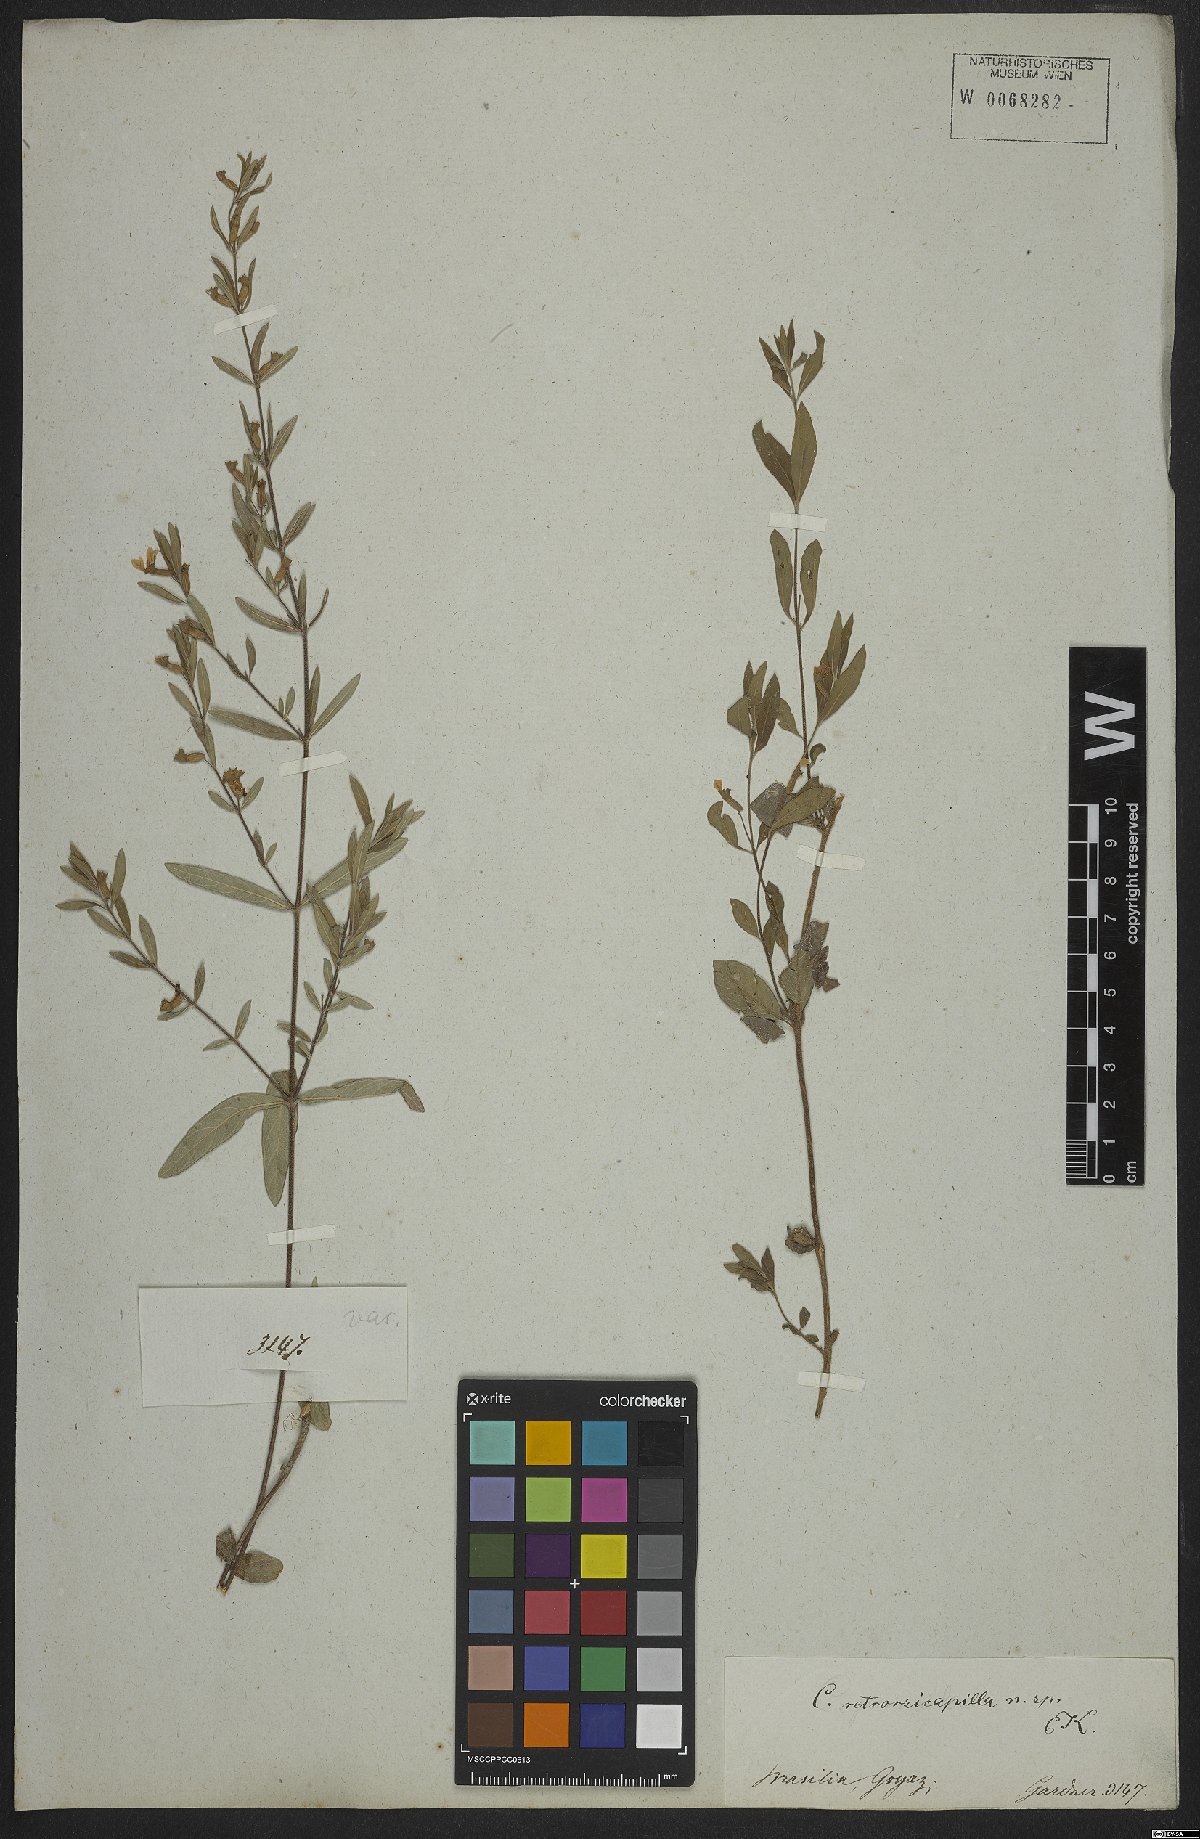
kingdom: Plantae
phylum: Tracheophyta
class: Magnoliopsida
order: Myrtales
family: Lythraceae
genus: Cuphea
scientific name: Cuphea retrorsicapilla
